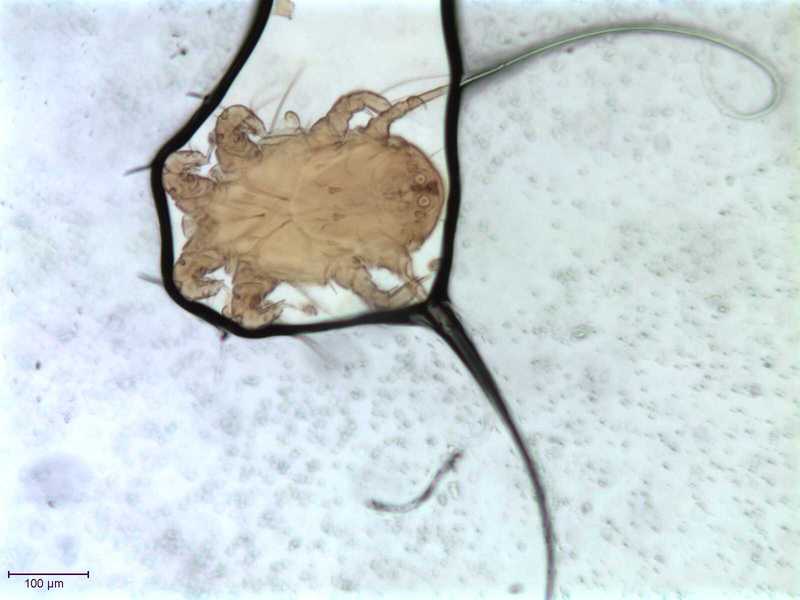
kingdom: Animalia
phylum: Arthropoda
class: Arachnida
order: Sarcoptiformes
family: Chaetodactylidae
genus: Sennertia
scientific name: Sennertia argentina
